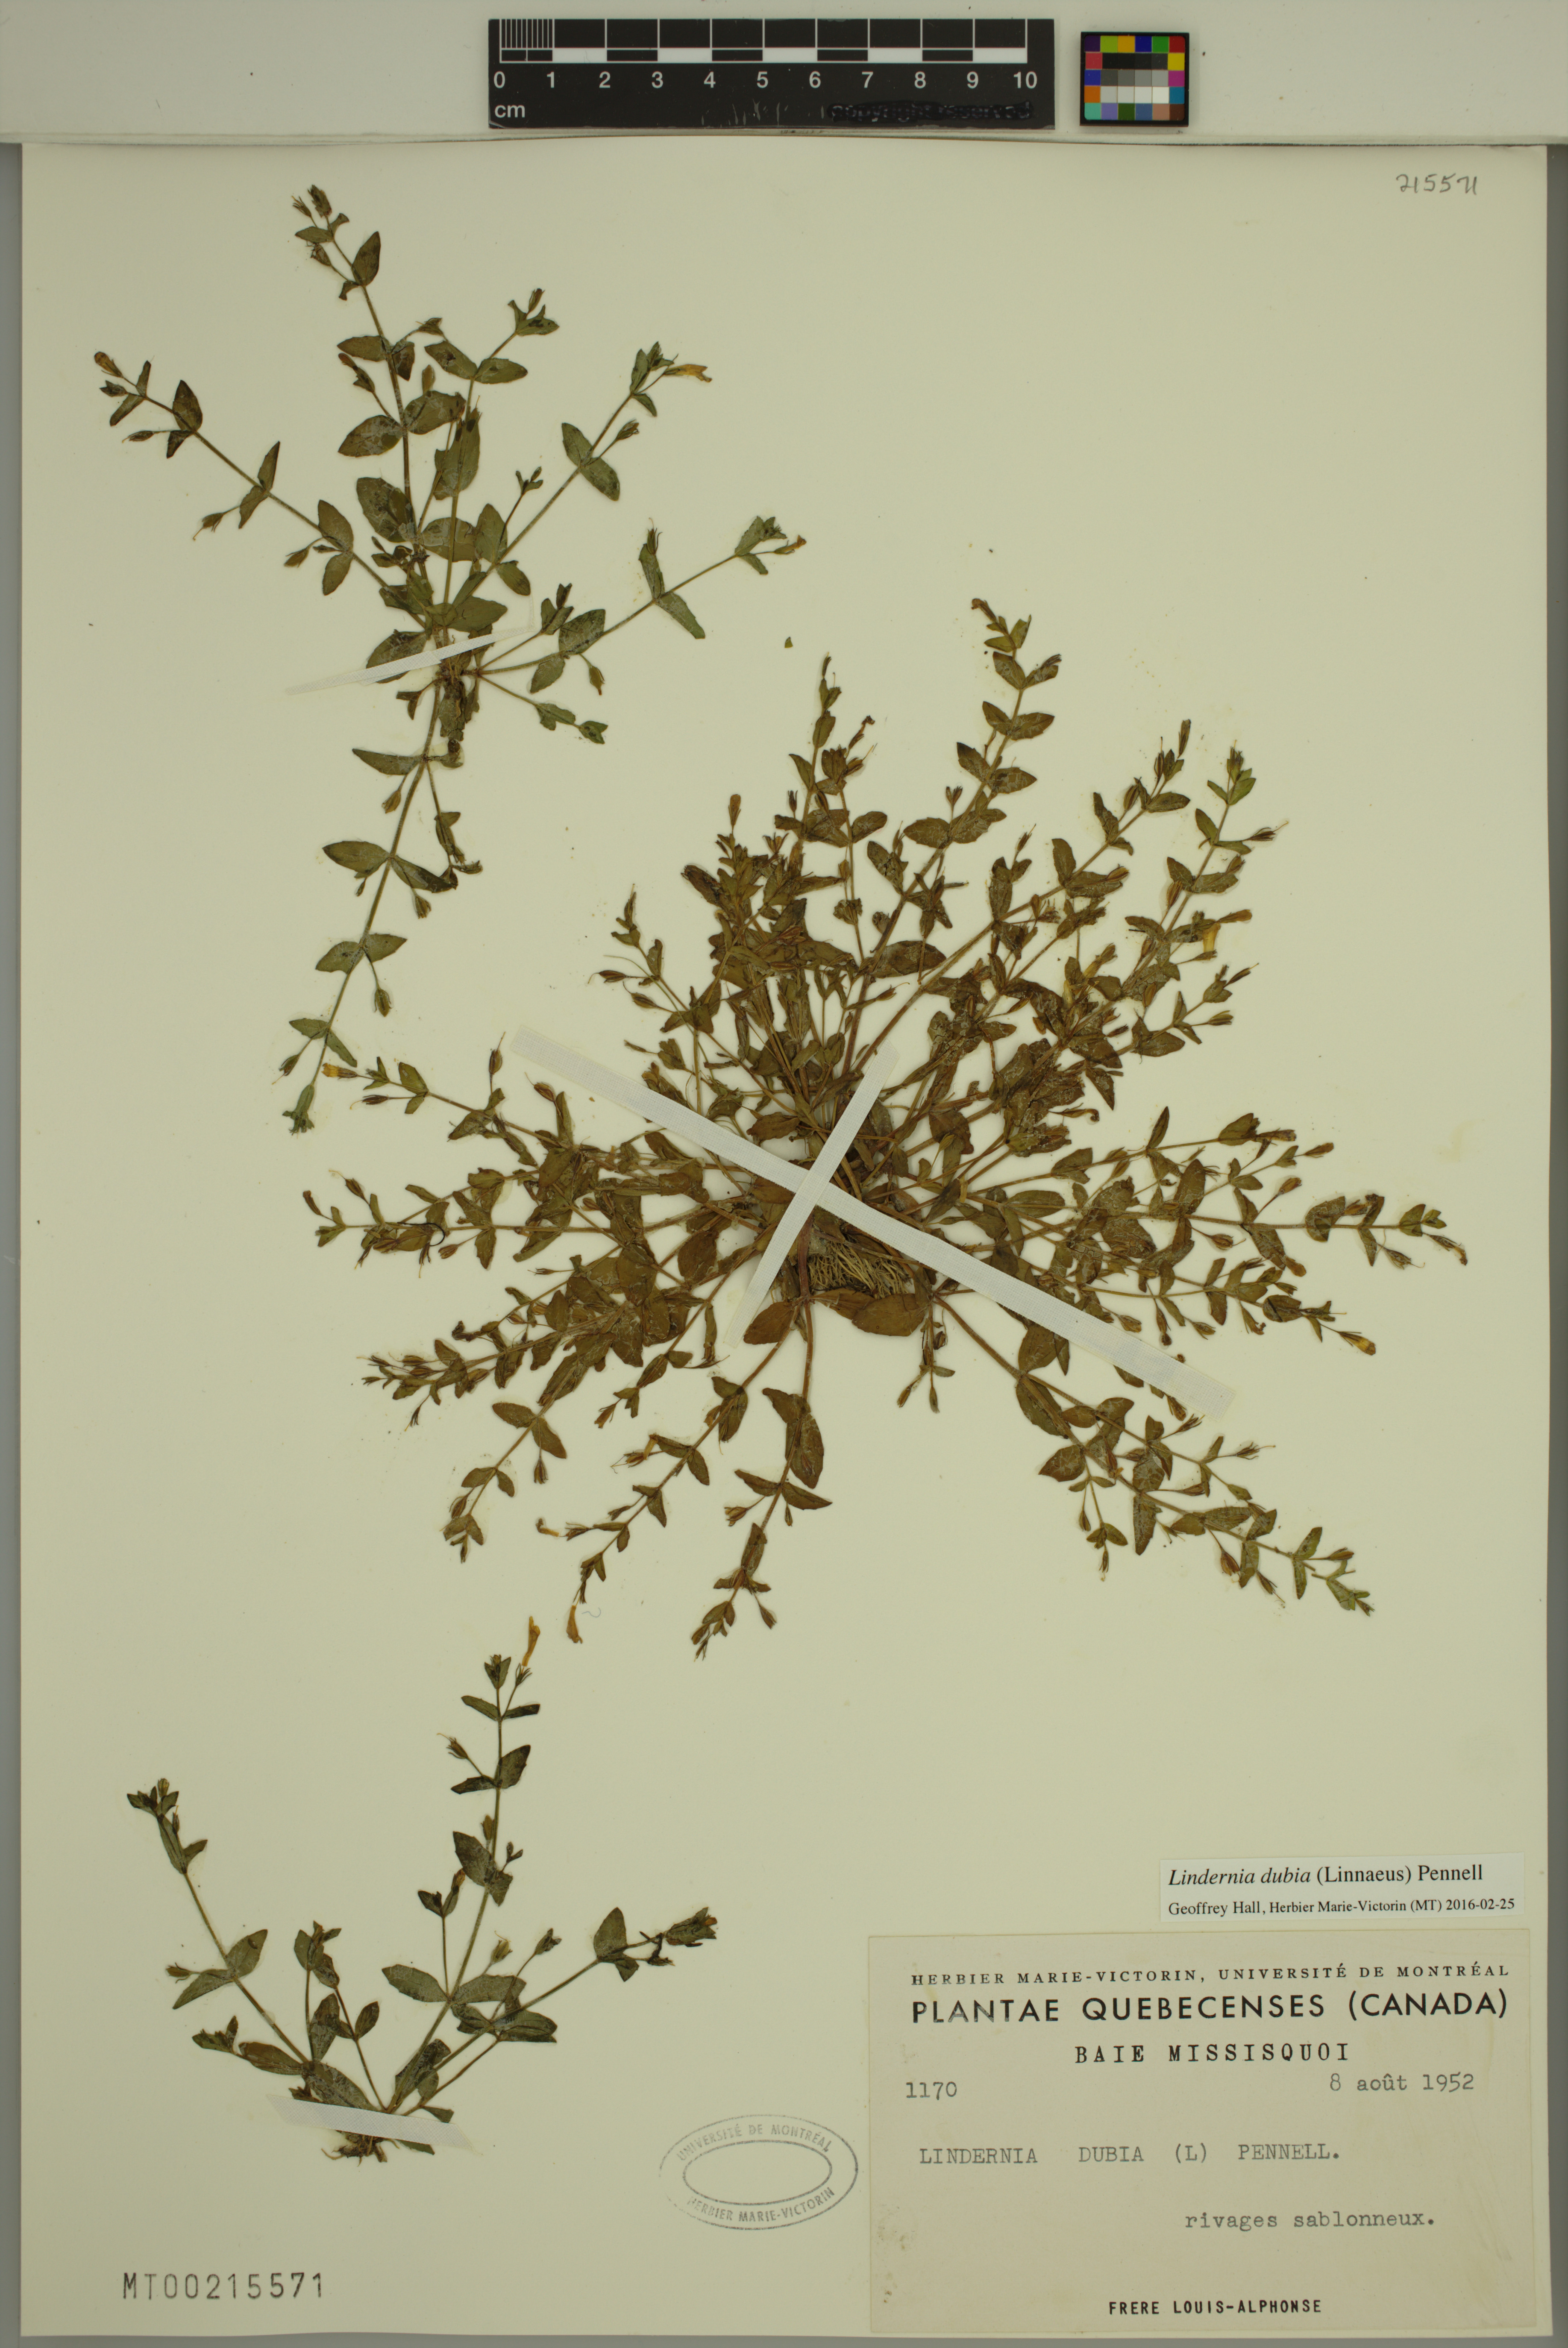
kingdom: Plantae
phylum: Tracheophyta
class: Magnoliopsida
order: Lamiales
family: Linderniaceae
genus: Lindernia
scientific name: Lindernia dubia
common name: Annual false pimpernel
